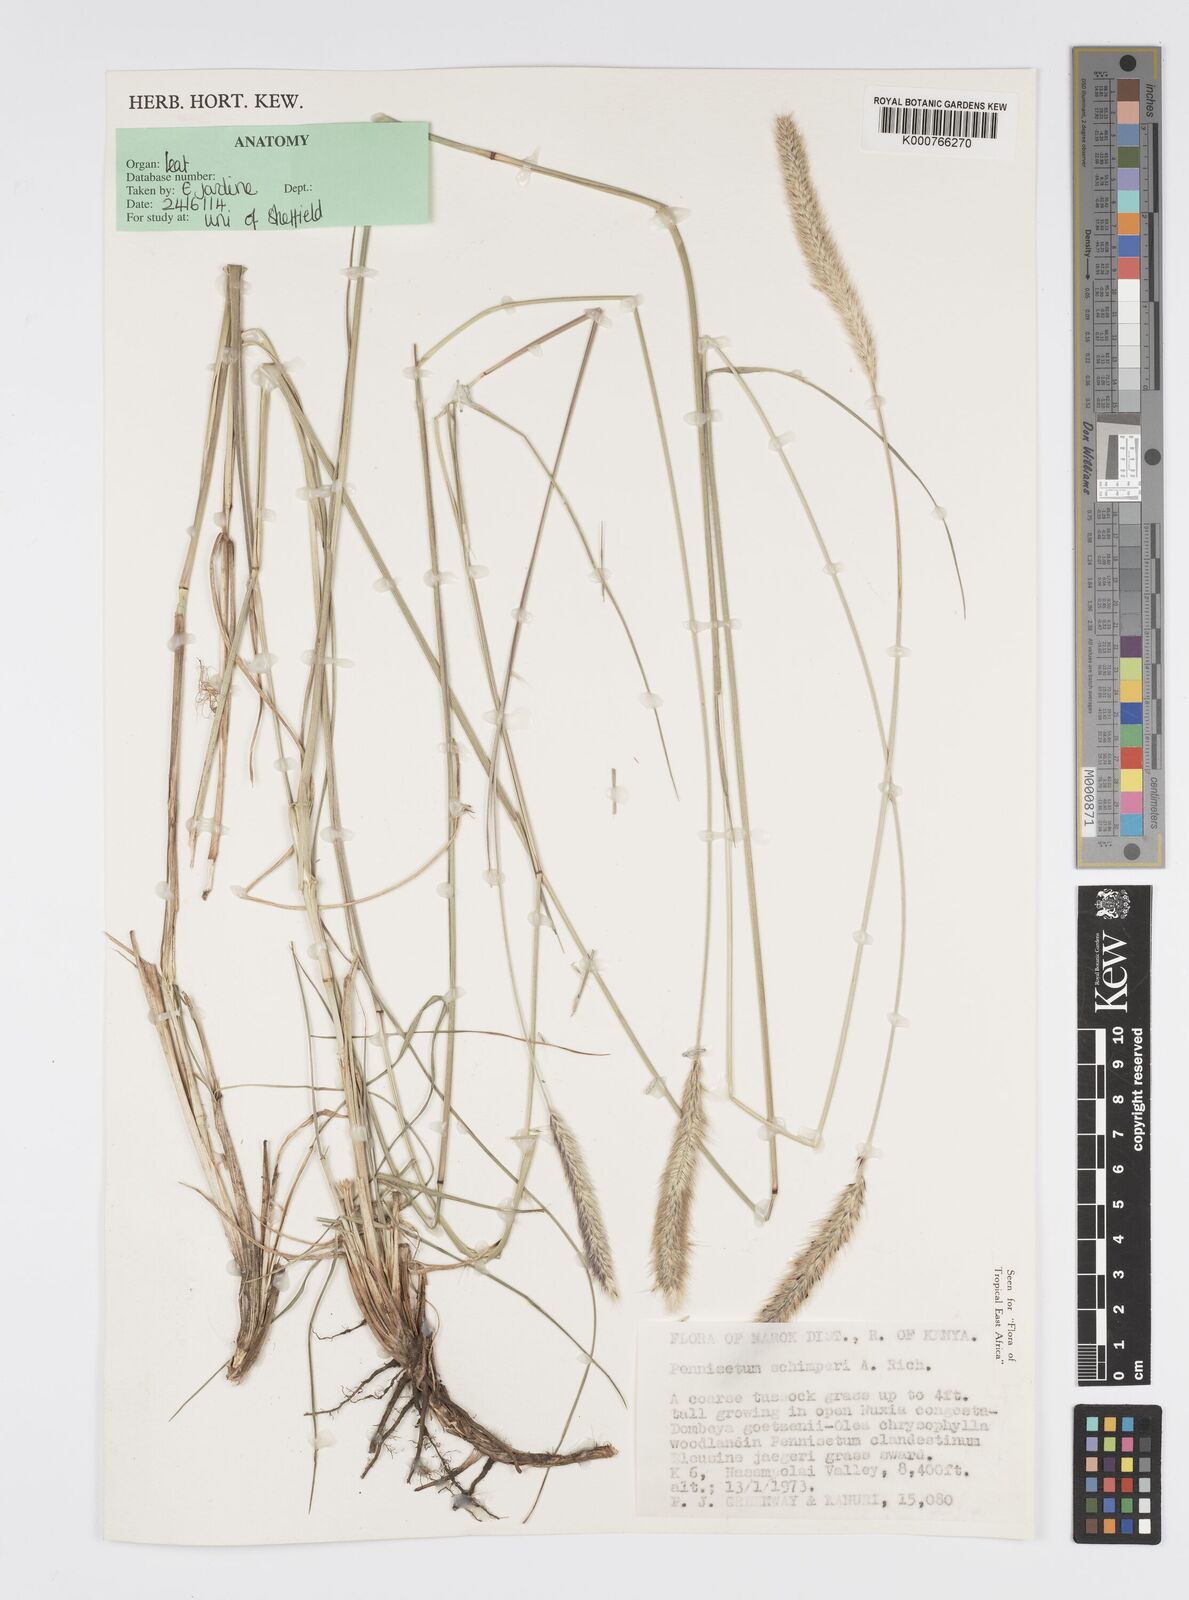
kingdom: Plantae
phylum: Tracheophyta
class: Liliopsida
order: Poales
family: Poaceae
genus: Cenchrus
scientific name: Cenchrus sphacelatus
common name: Bulgras
